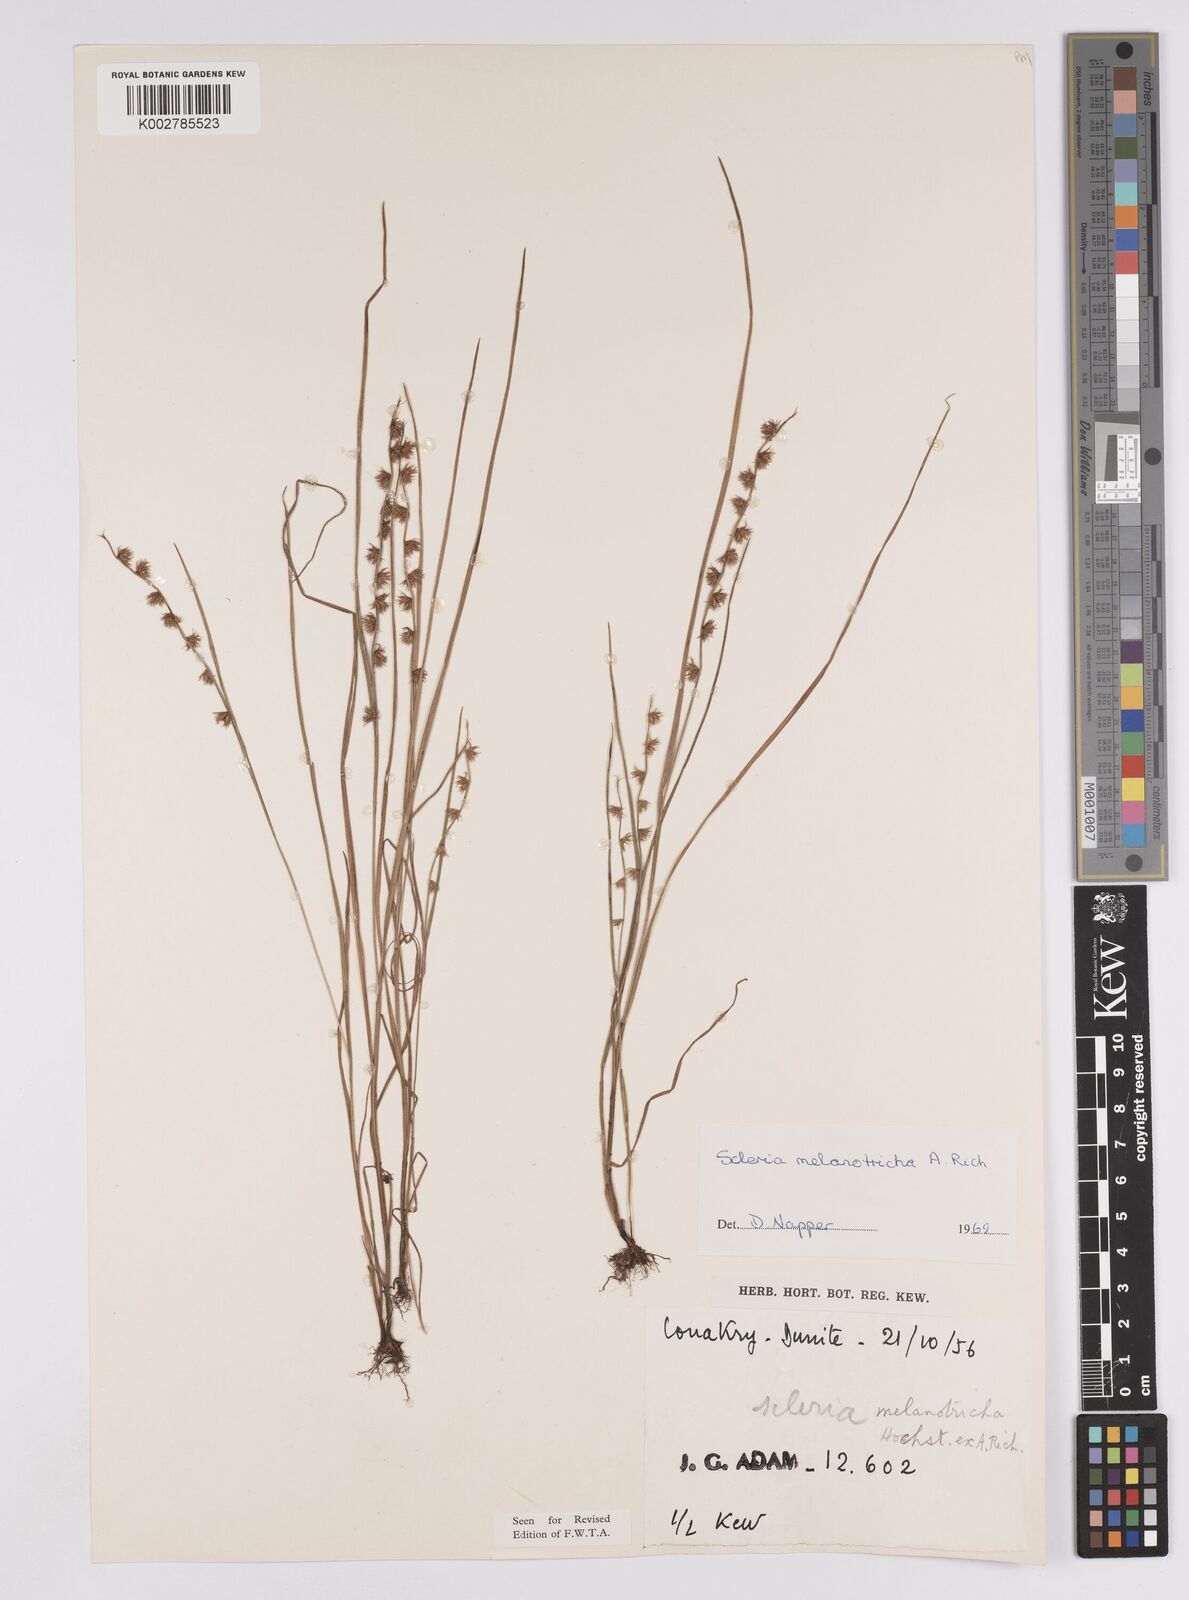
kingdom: Plantae
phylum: Tracheophyta
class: Liliopsida
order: Poales
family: Cyperaceae
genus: Scleria
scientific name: Scleria melanotricha
